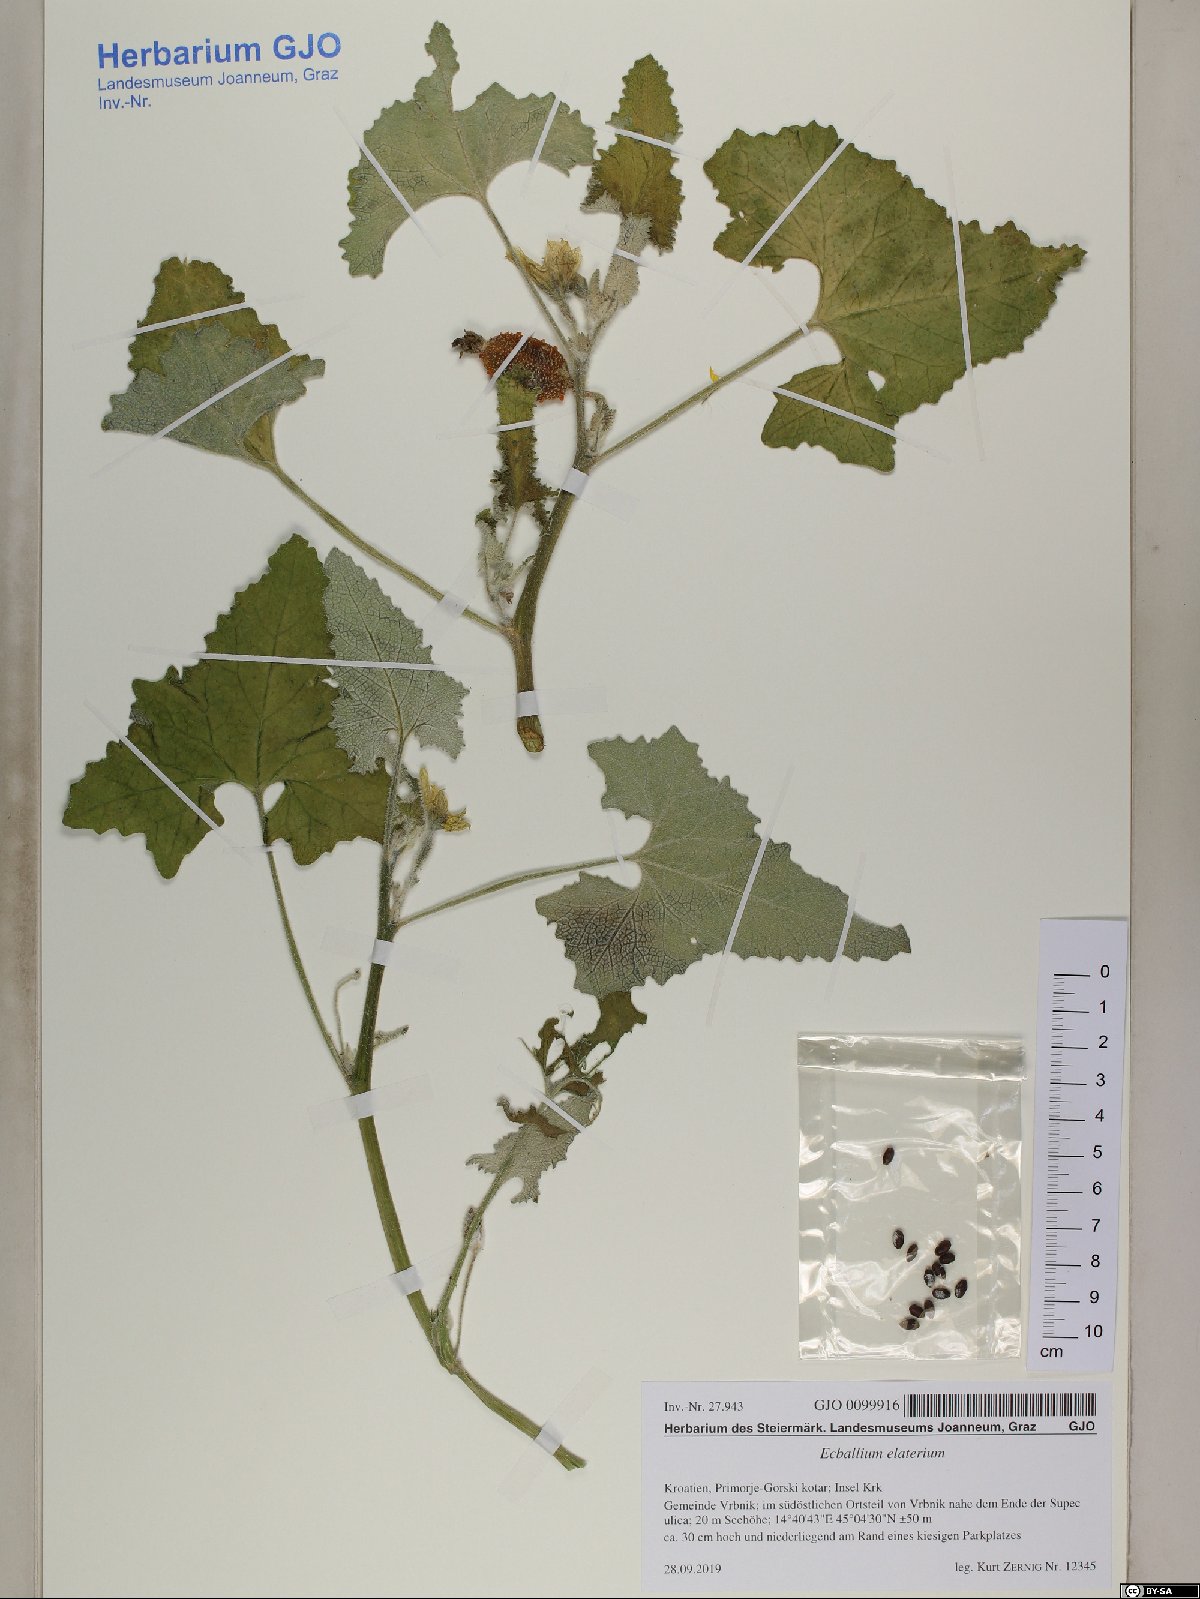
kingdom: Plantae
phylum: Tracheophyta
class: Magnoliopsida
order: Cucurbitales
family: Cucurbitaceae
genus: Ecballium
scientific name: Ecballium elaterium
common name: Squirting cucumber
